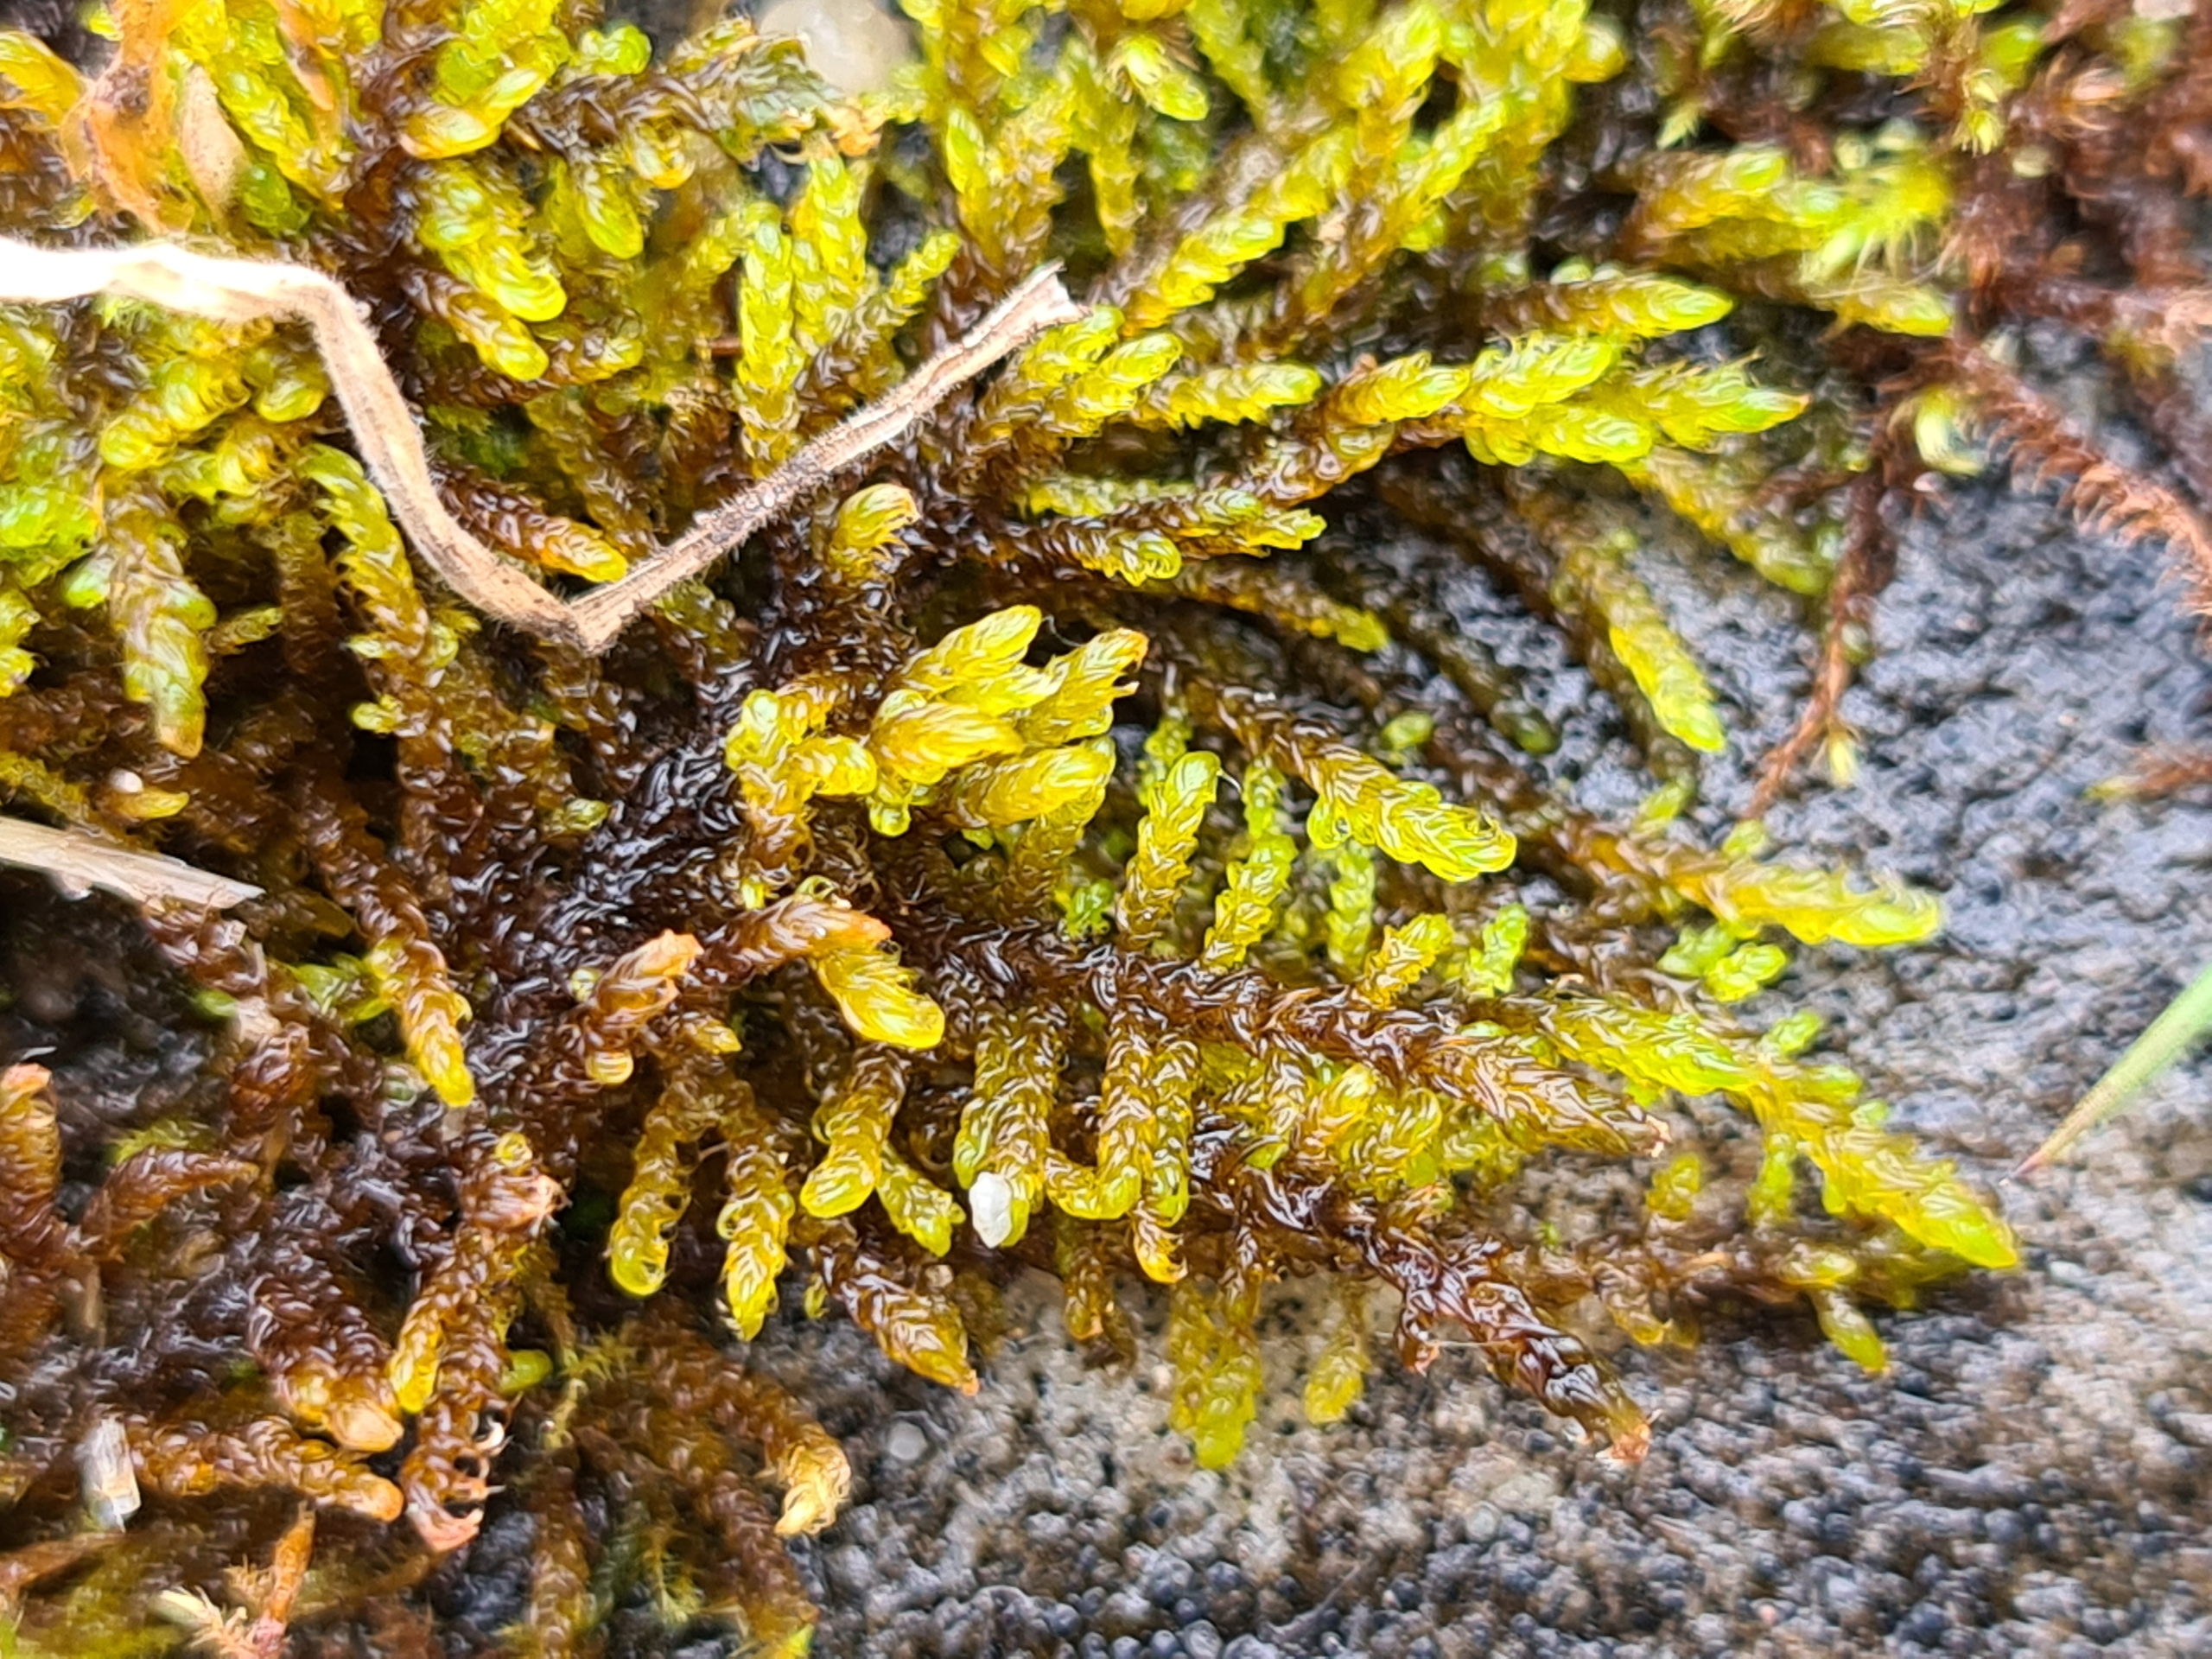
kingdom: Plantae
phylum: Bryophyta
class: Bryopsida
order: Hypnales
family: Amblystegiaceae
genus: Palustriella
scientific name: Palustriella commutata
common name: Bredbladet vældmos
